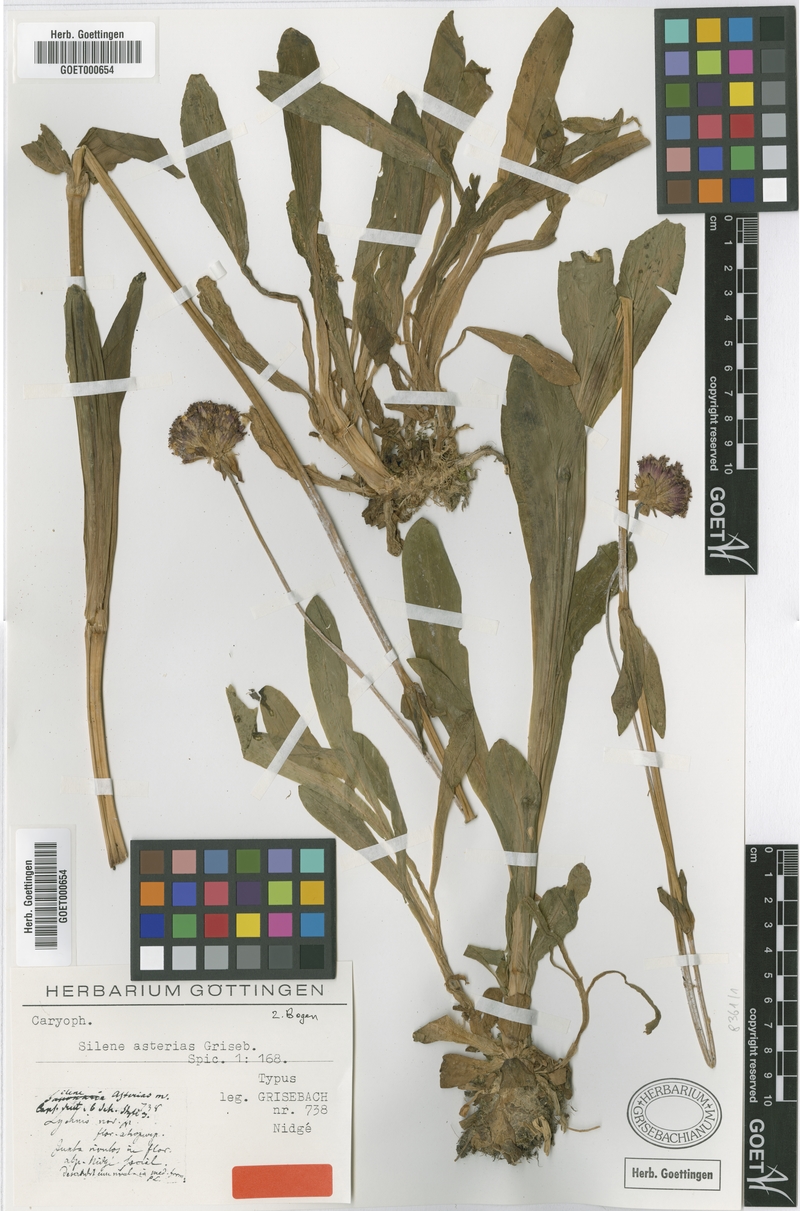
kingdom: Plantae
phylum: Tracheophyta
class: Magnoliopsida
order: Caryophyllales
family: Caryophyllaceae
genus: Viscaria
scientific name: Viscaria asterias
